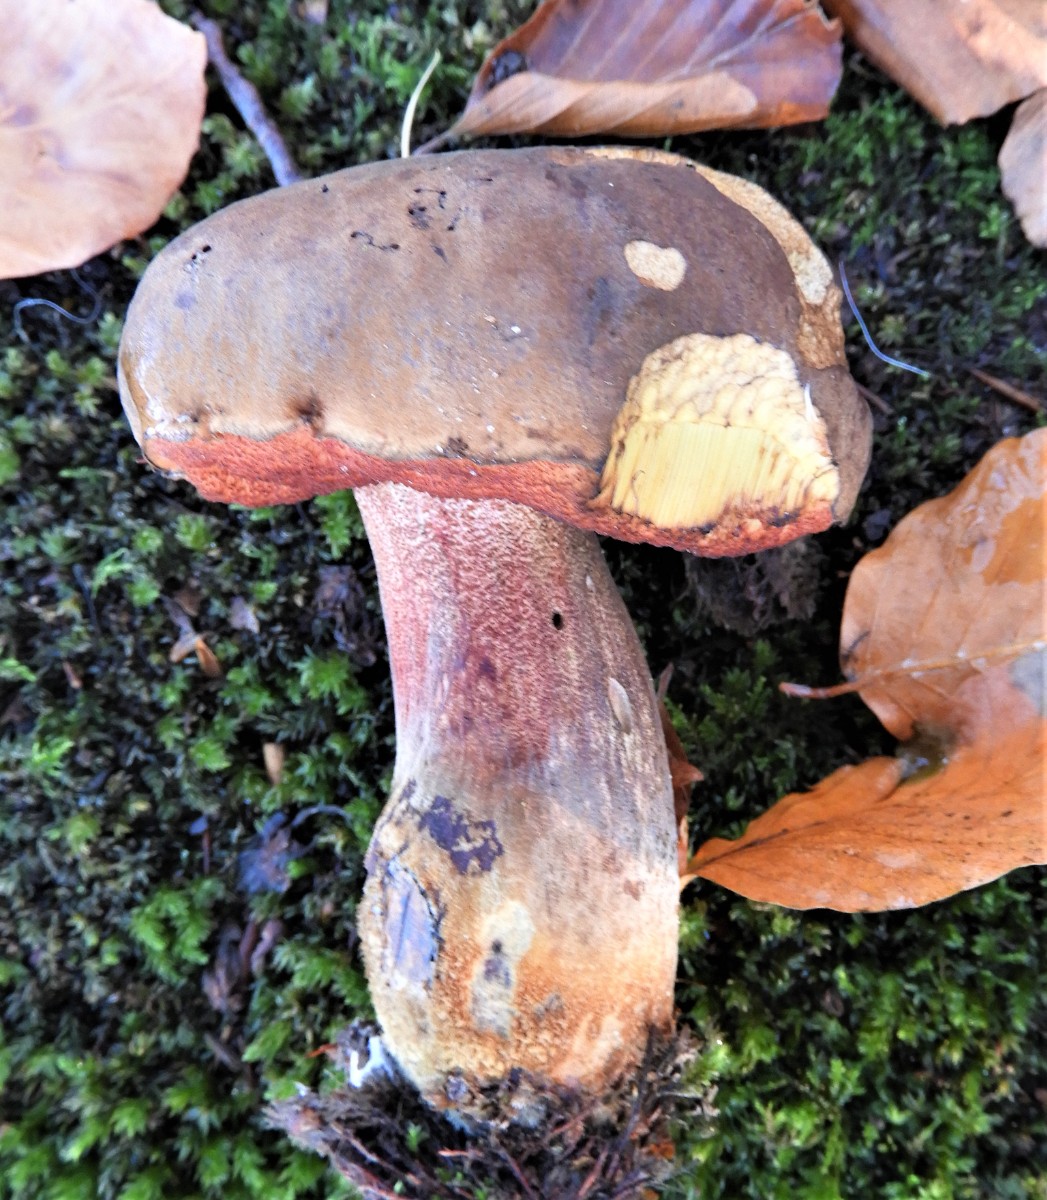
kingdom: Fungi
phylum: Basidiomycota
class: Agaricomycetes
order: Boletales
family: Boletaceae
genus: Neoboletus
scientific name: Neoboletus erythropus
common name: punktstokket indigorørhat
